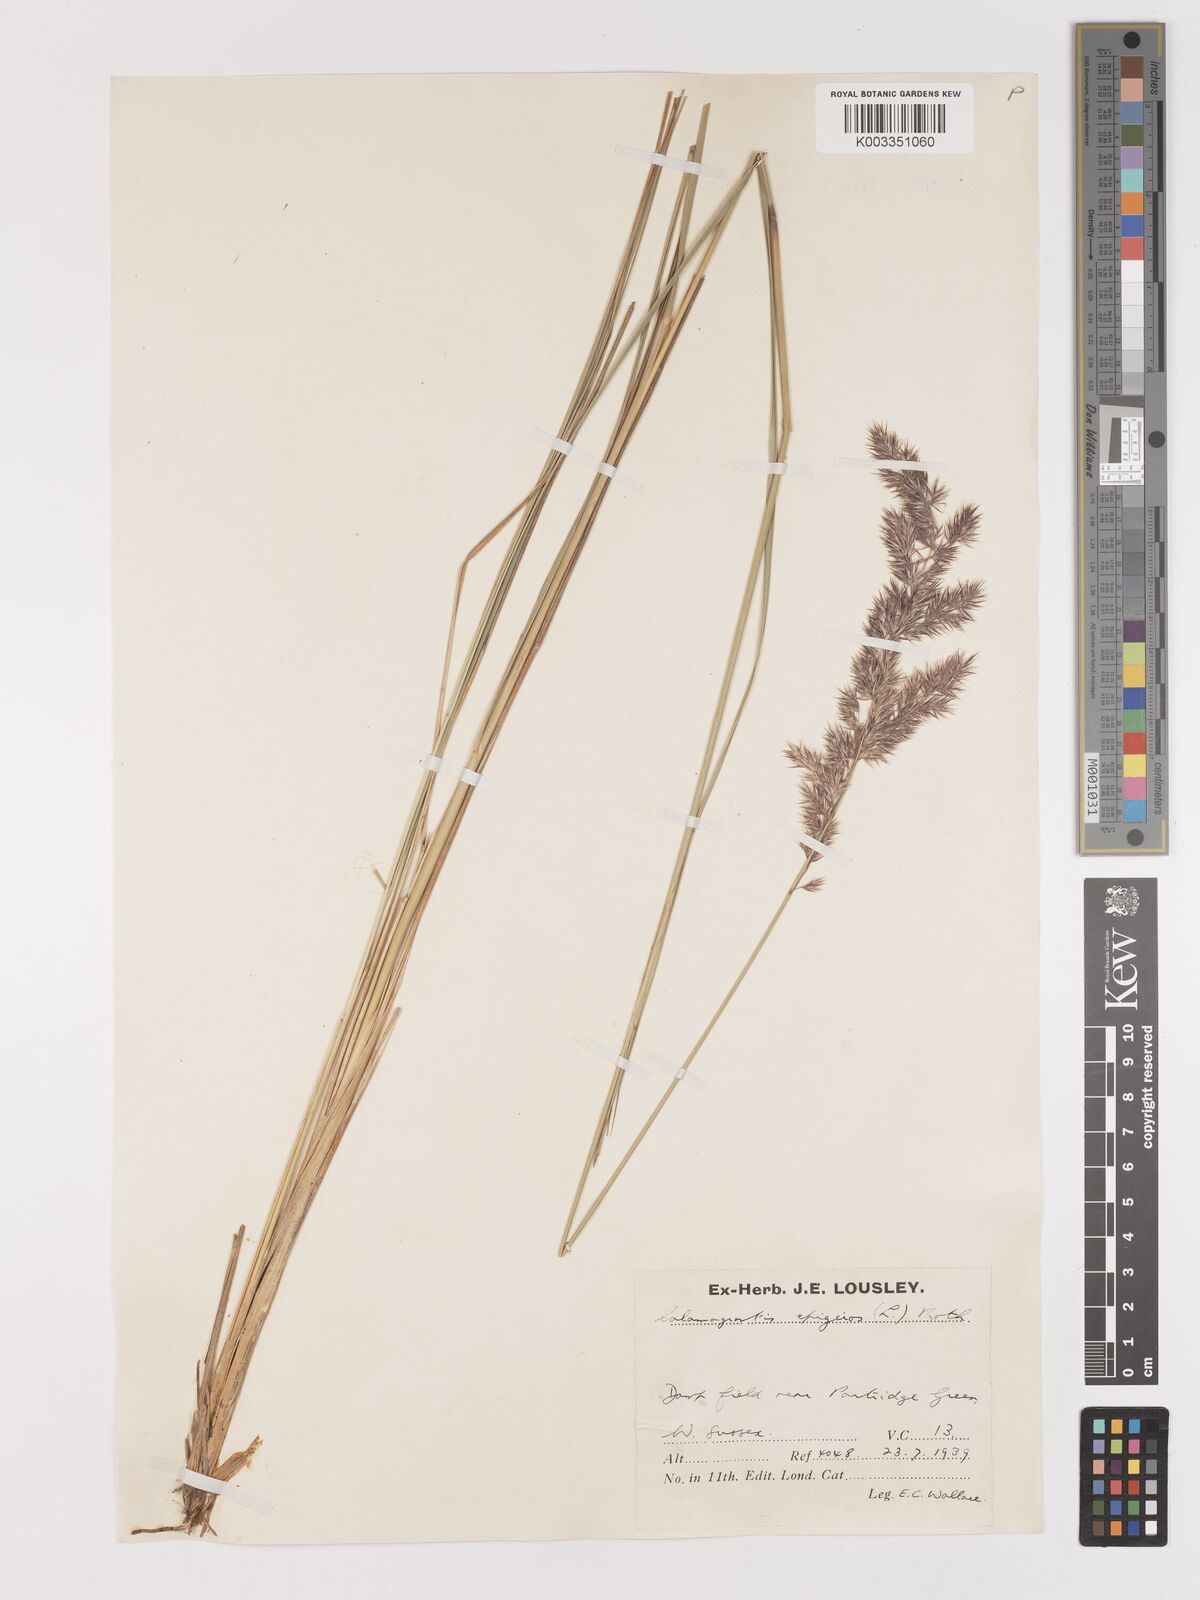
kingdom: Plantae
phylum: Tracheophyta
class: Liliopsida
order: Poales
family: Poaceae
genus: Calamagrostis
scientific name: Calamagrostis epigejos
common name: Wood small-reed
